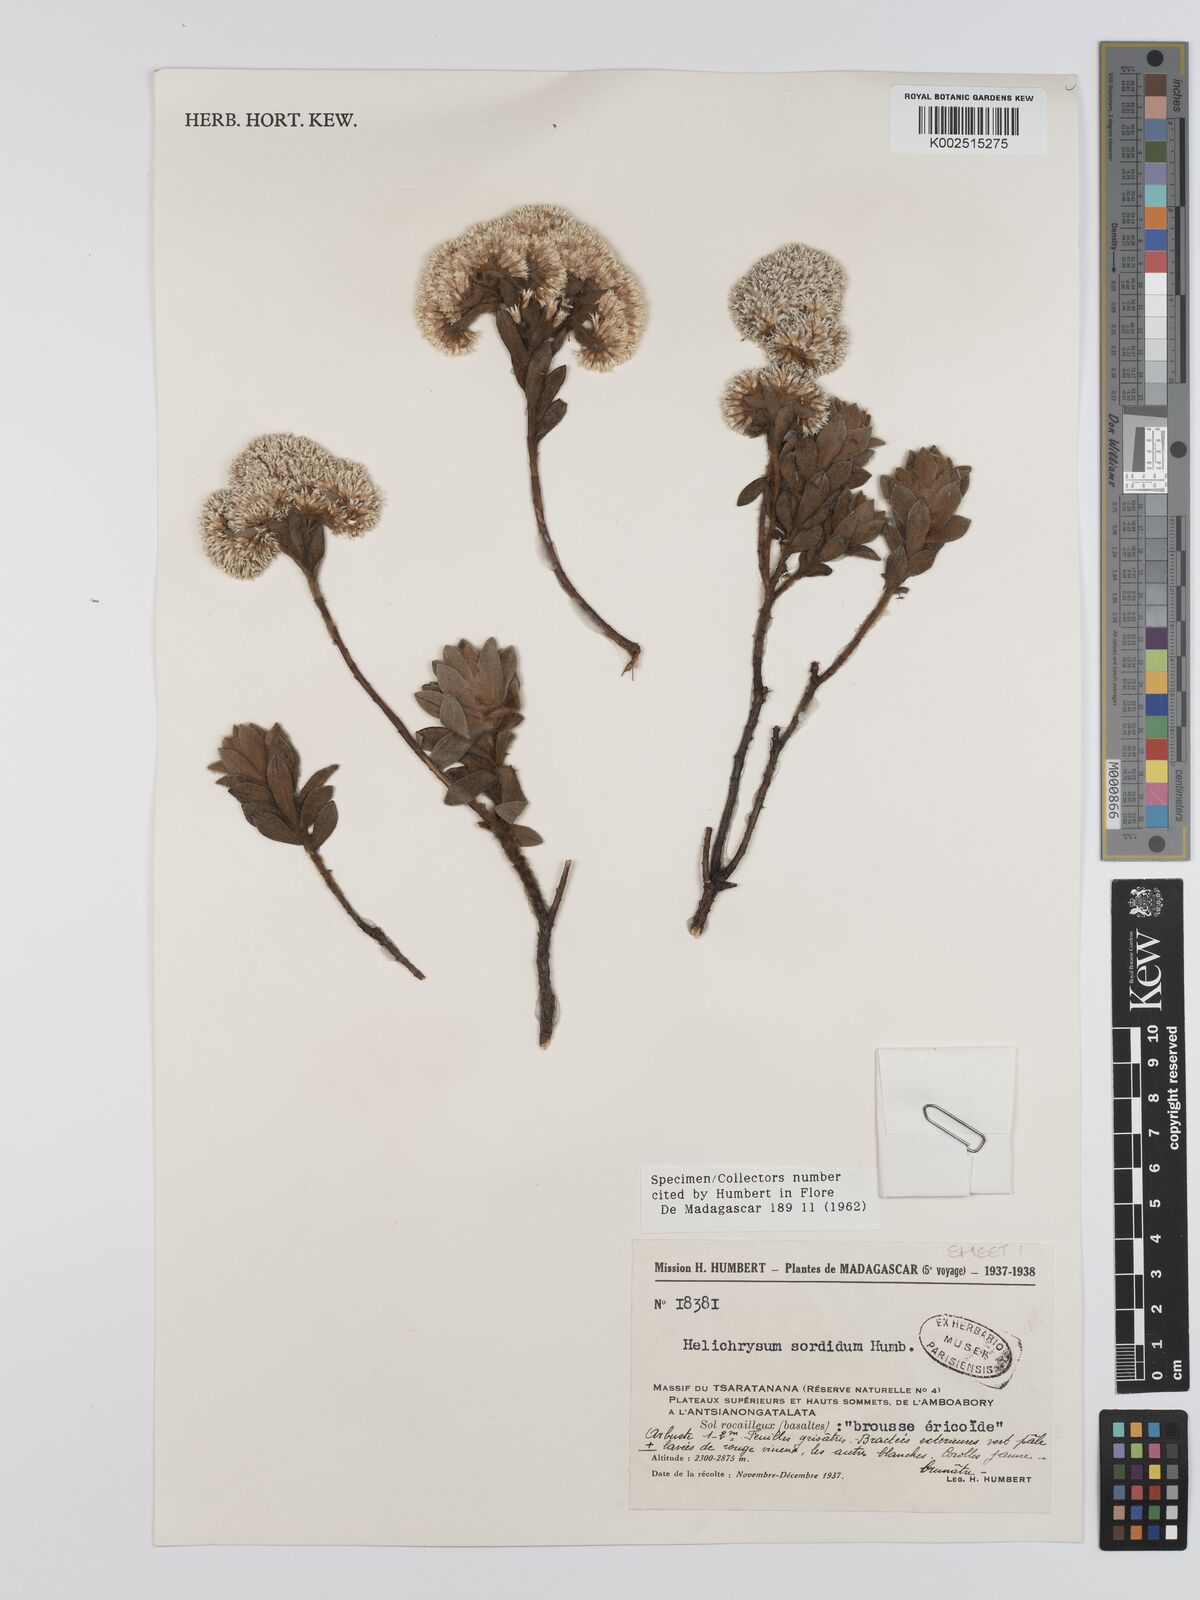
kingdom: Plantae
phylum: Tracheophyta
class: Magnoliopsida
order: Asterales
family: Asteraceae
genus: Helichrysum
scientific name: Helichrysum sordidum
